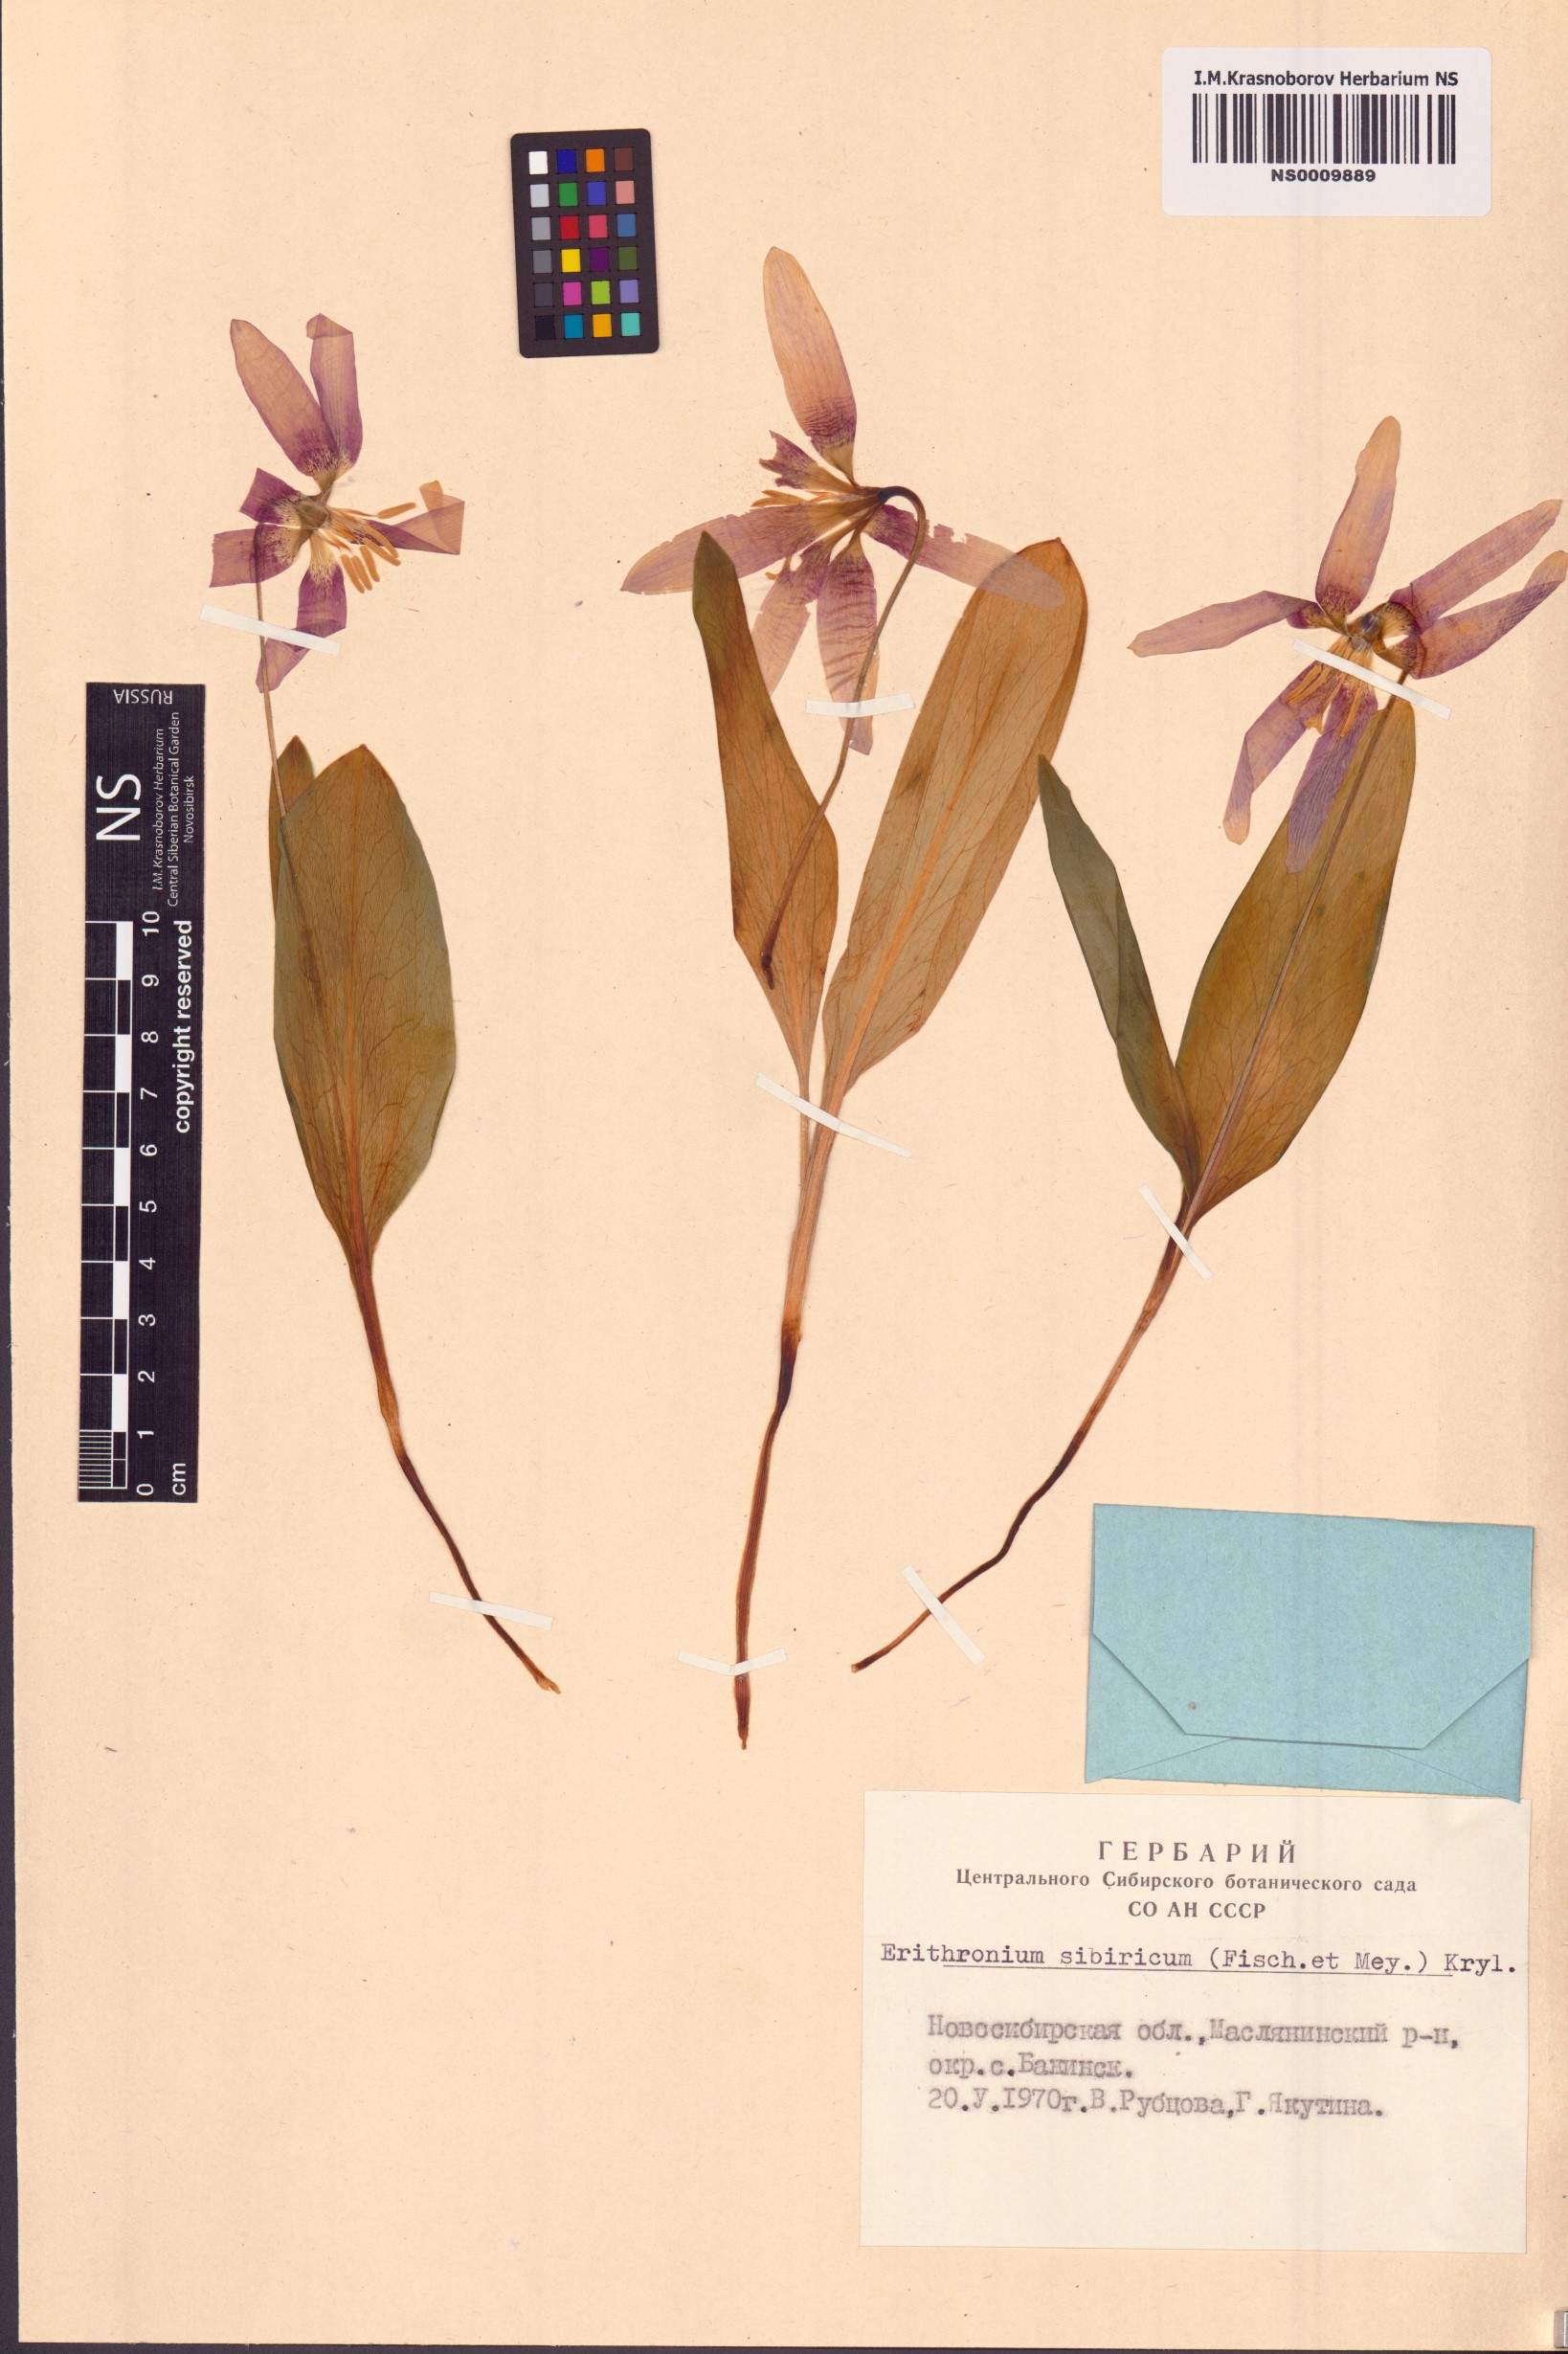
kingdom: Plantae
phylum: Tracheophyta
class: Liliopsida
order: Liliales
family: Liliaceae
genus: Erythronium
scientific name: Erythronium sibiricum
